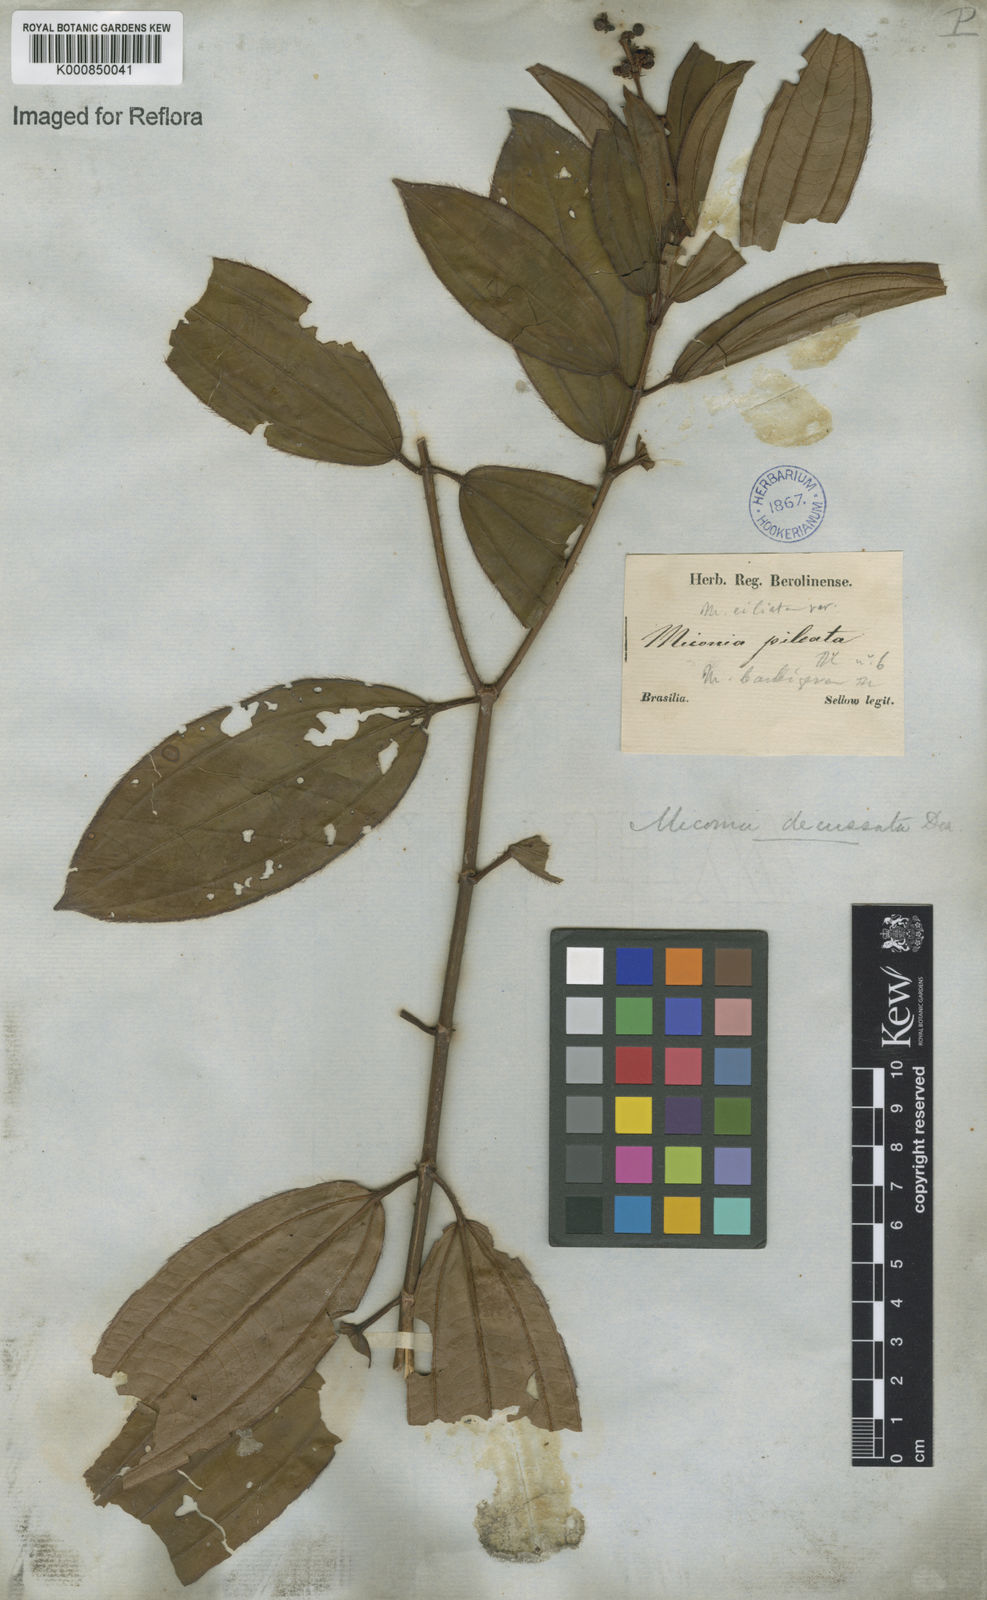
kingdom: Plantae
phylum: Tracheophyta
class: Magnoliopsida
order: Myrtales
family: Melastomataceae
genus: Miconia
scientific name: Miconia ciliata
